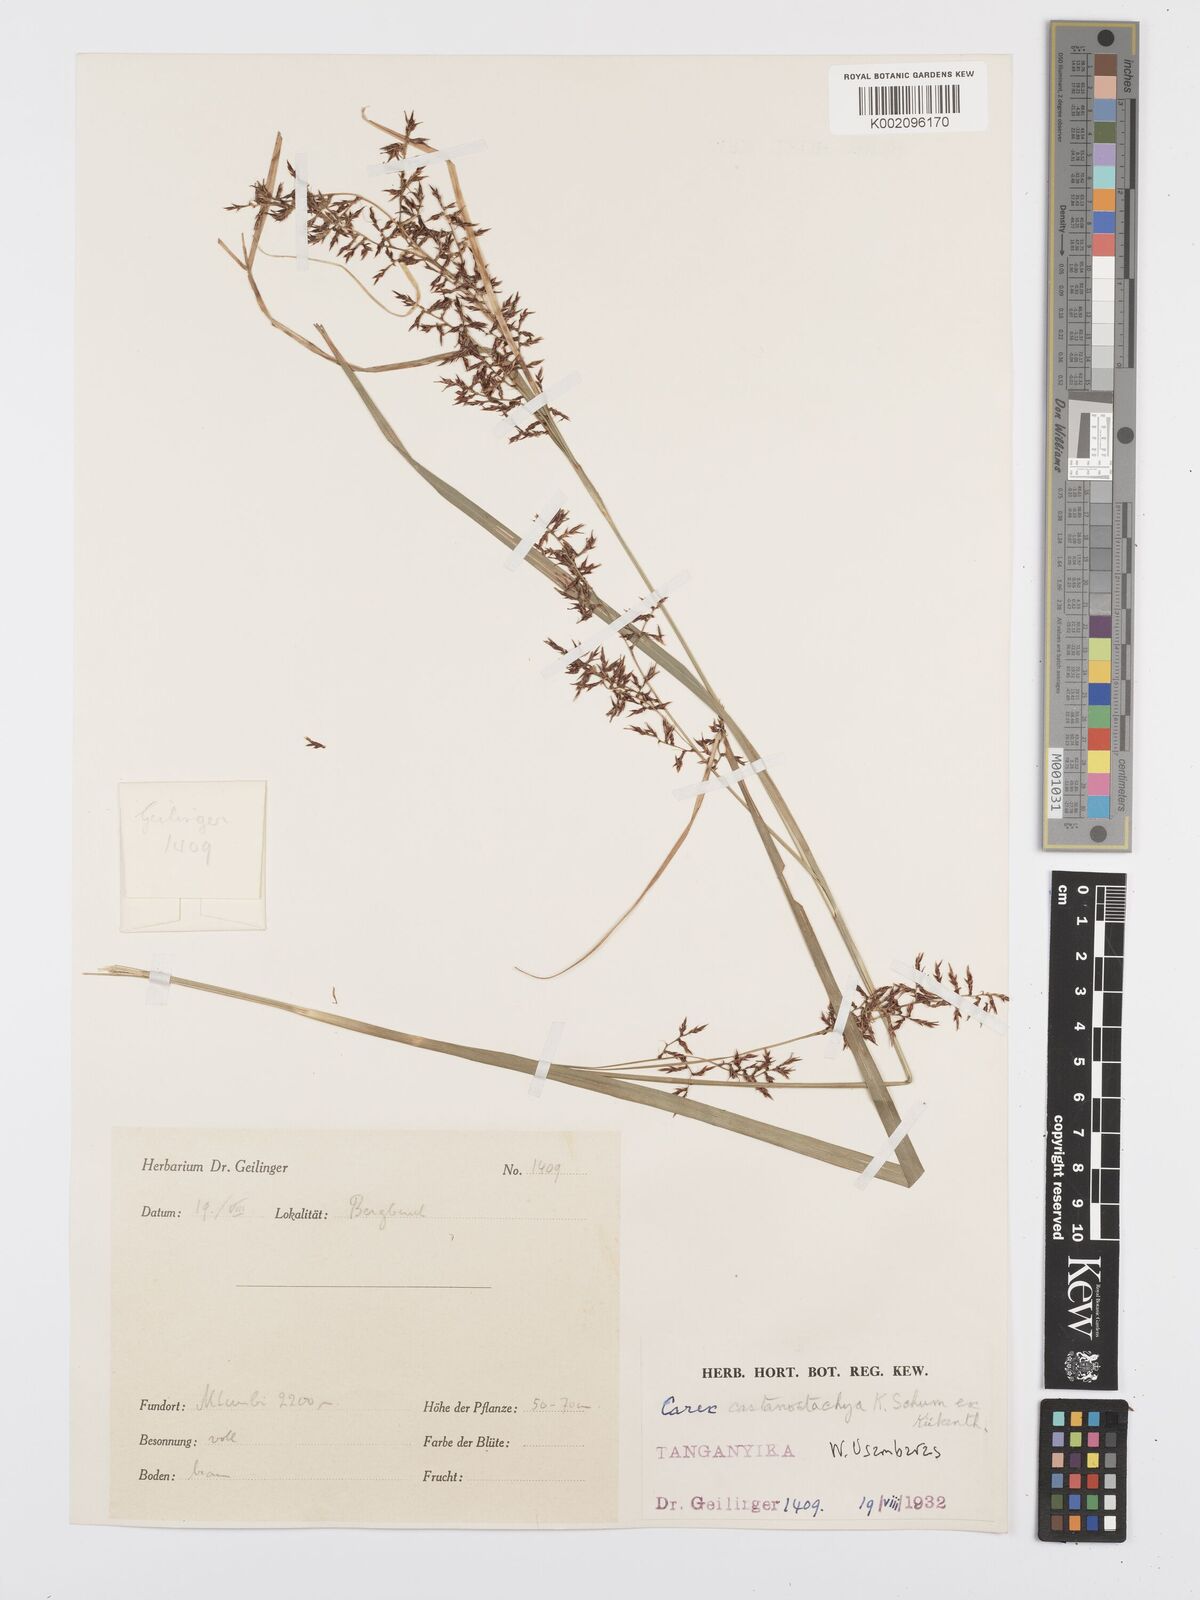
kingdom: Plantae
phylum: Tracheophyta
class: Liliopsida
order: Poales
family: Cyperaceae
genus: Carex
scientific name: Carex castanostachya
